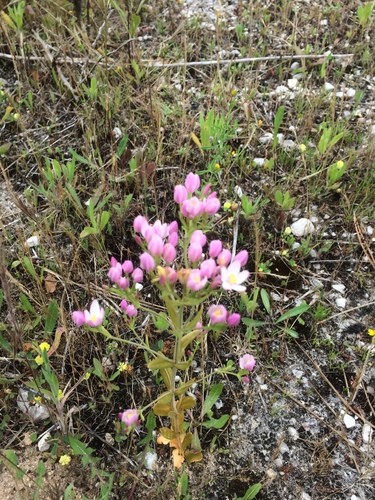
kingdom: Plantae
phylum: Tracheophyta
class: Magnoliopsida
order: Gentianales
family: Gentianaceae
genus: Centaurium
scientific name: Centaurium erythraea
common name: Common centaury
